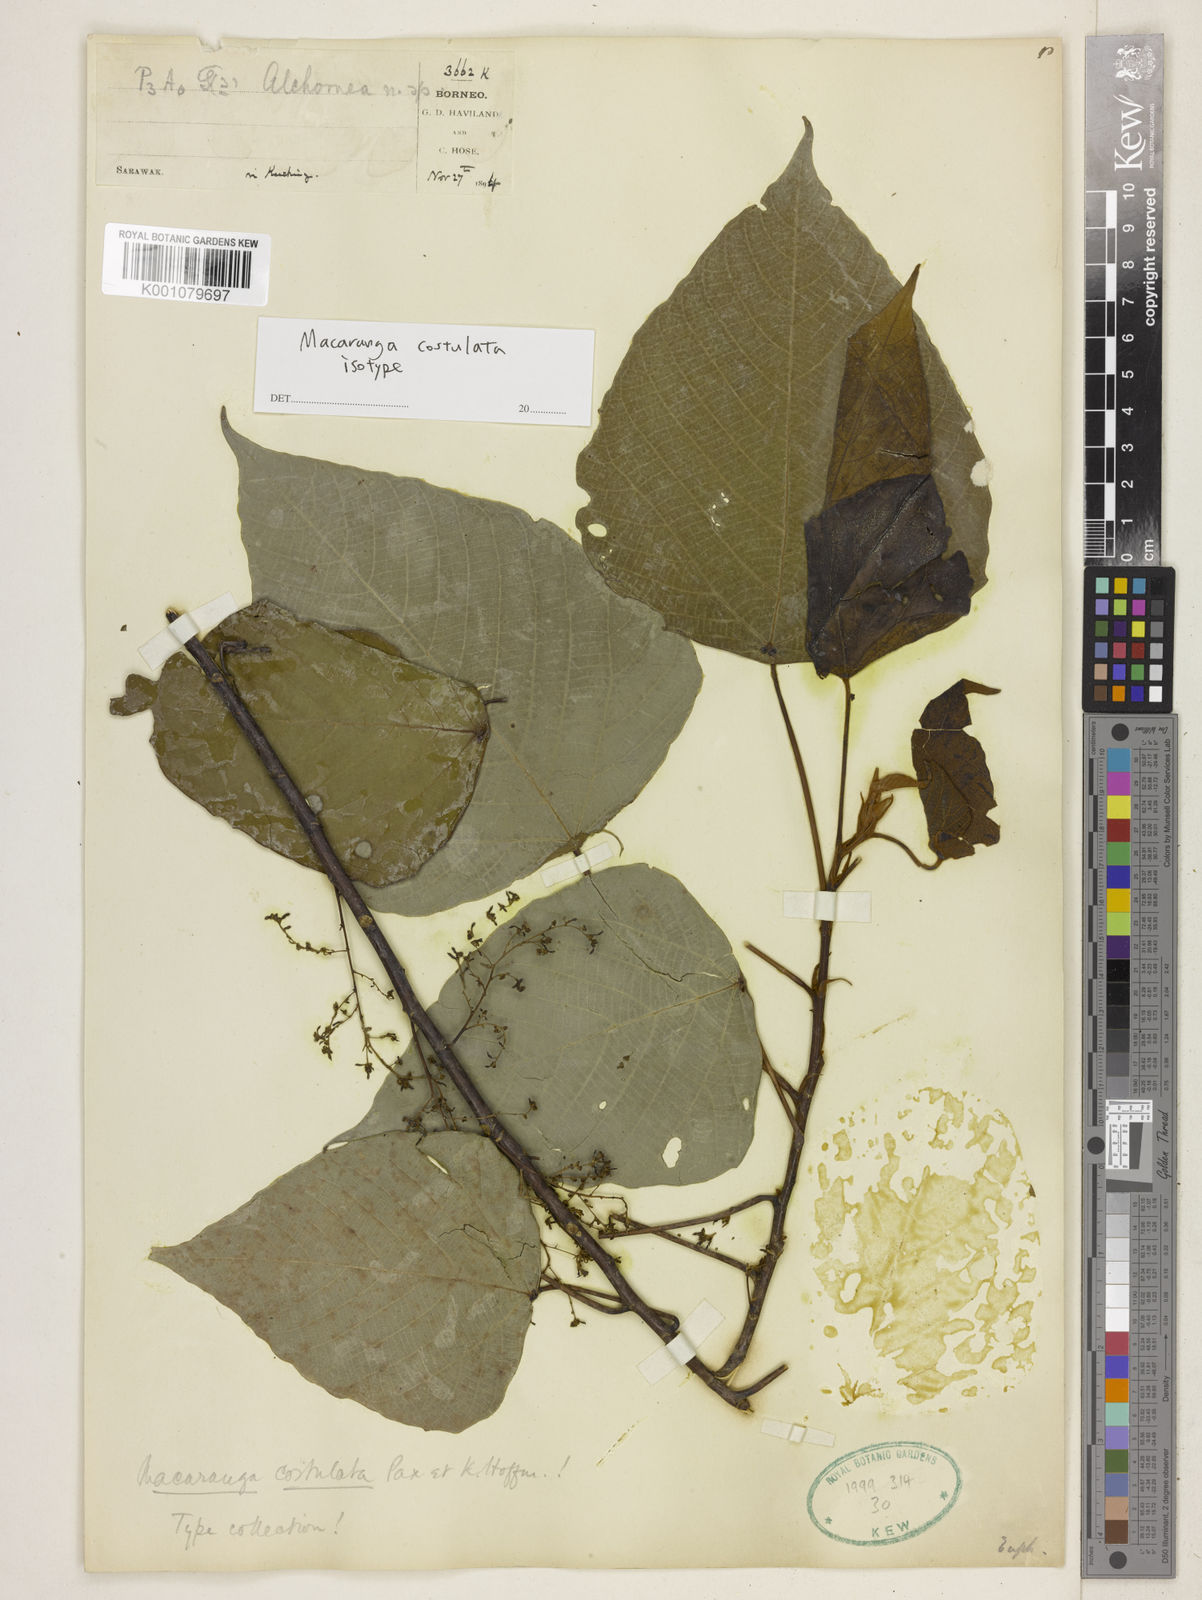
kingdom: Plantae
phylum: Tracheophyta
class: Magnoliopsida
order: Malpighiales
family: Euphorbiaceae
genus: Macaranga
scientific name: Macaranga costulata
